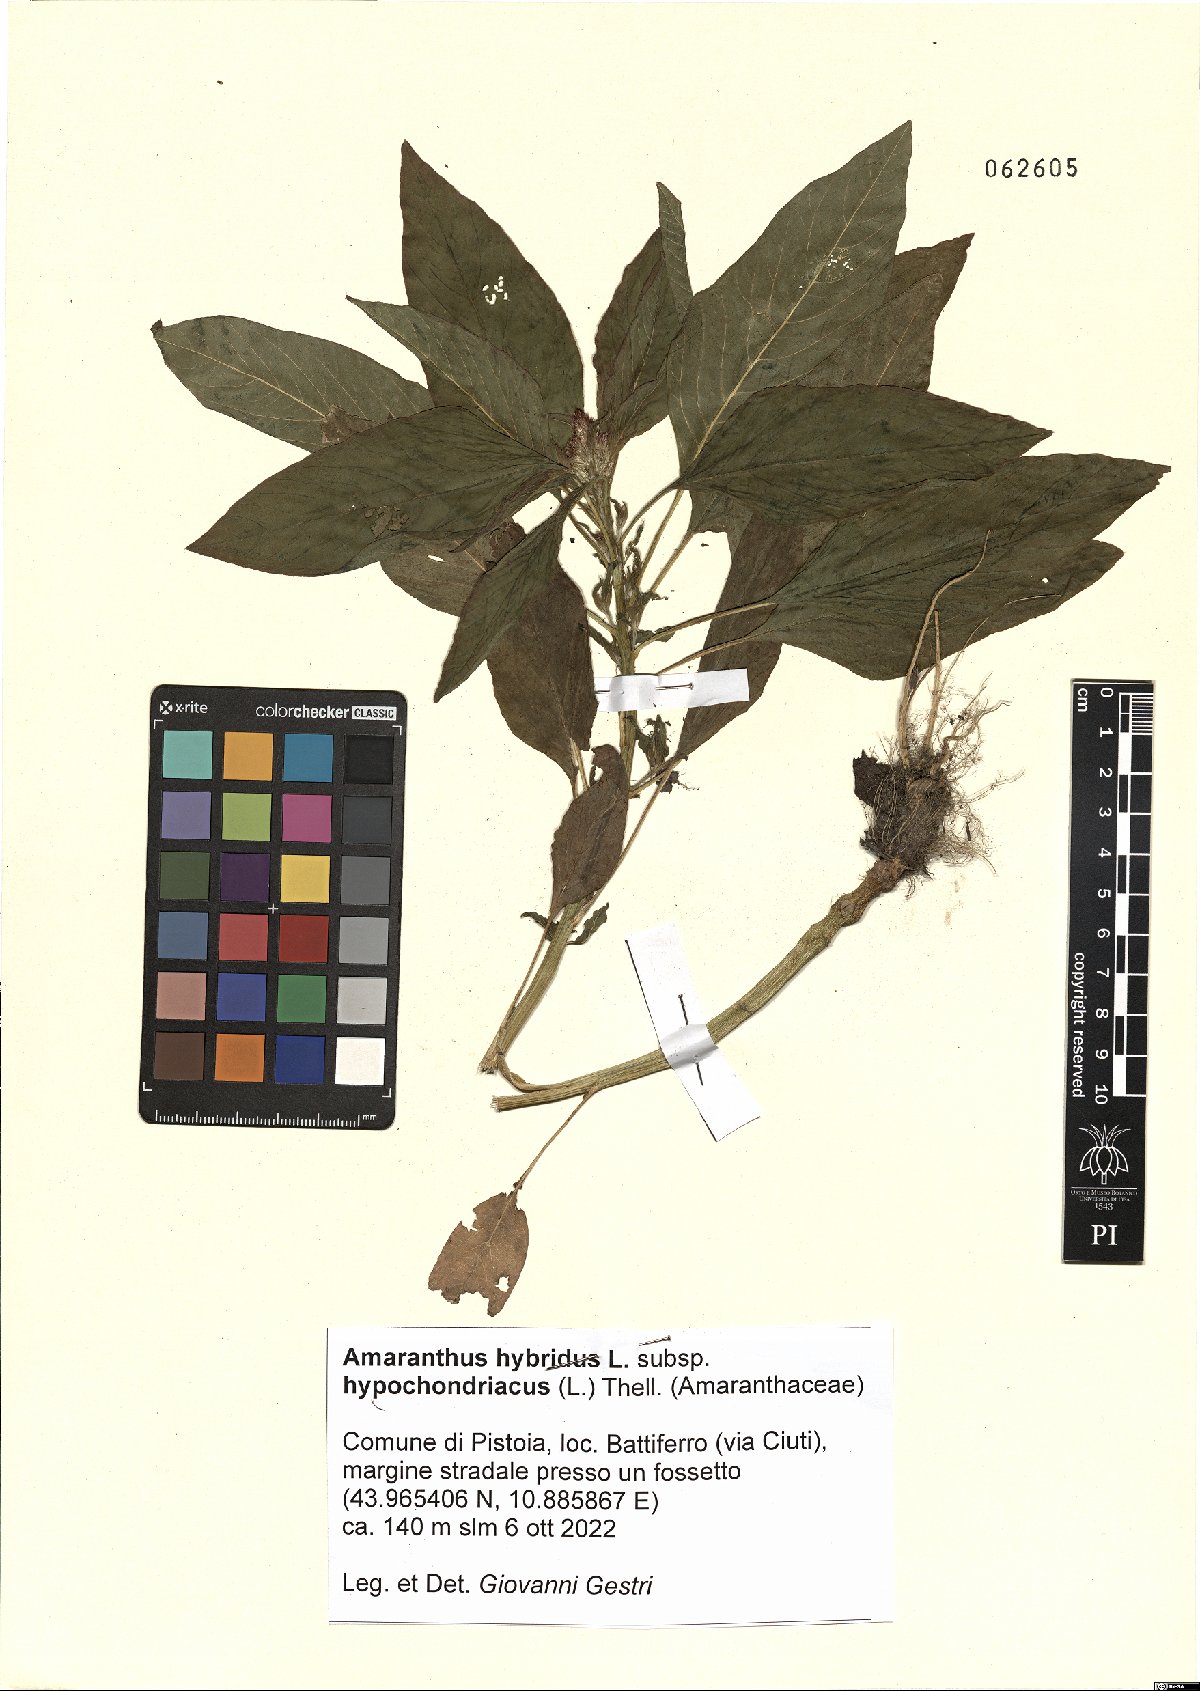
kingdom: Plantae
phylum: Tracheophyta
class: Magnoliopsida
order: Caryophyllales
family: Amaranthaceae
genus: Amaranthus
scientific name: Amaranthus hypochondriacus
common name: Prince's-feather
